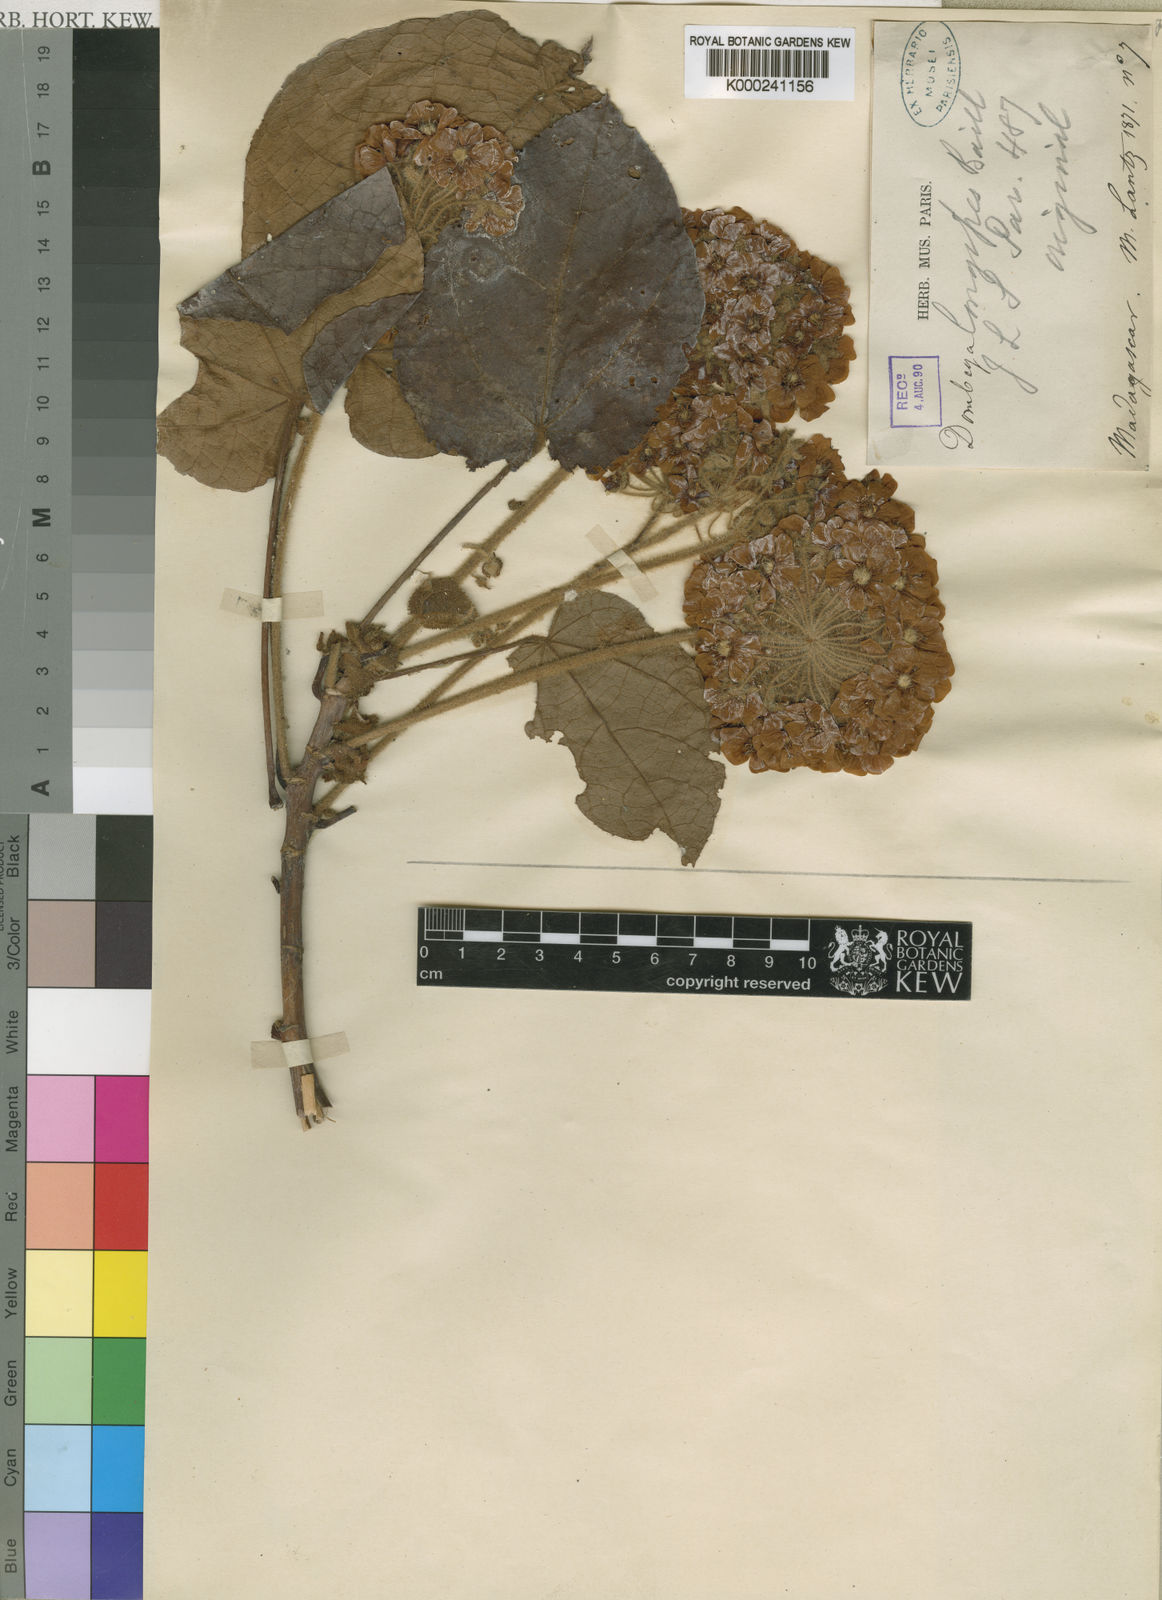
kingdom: Plantae
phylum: Tracheophyta
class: Magnoliopsida
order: Malvales
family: Malvaceae
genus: Dombeya
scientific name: Dombeya longipes
